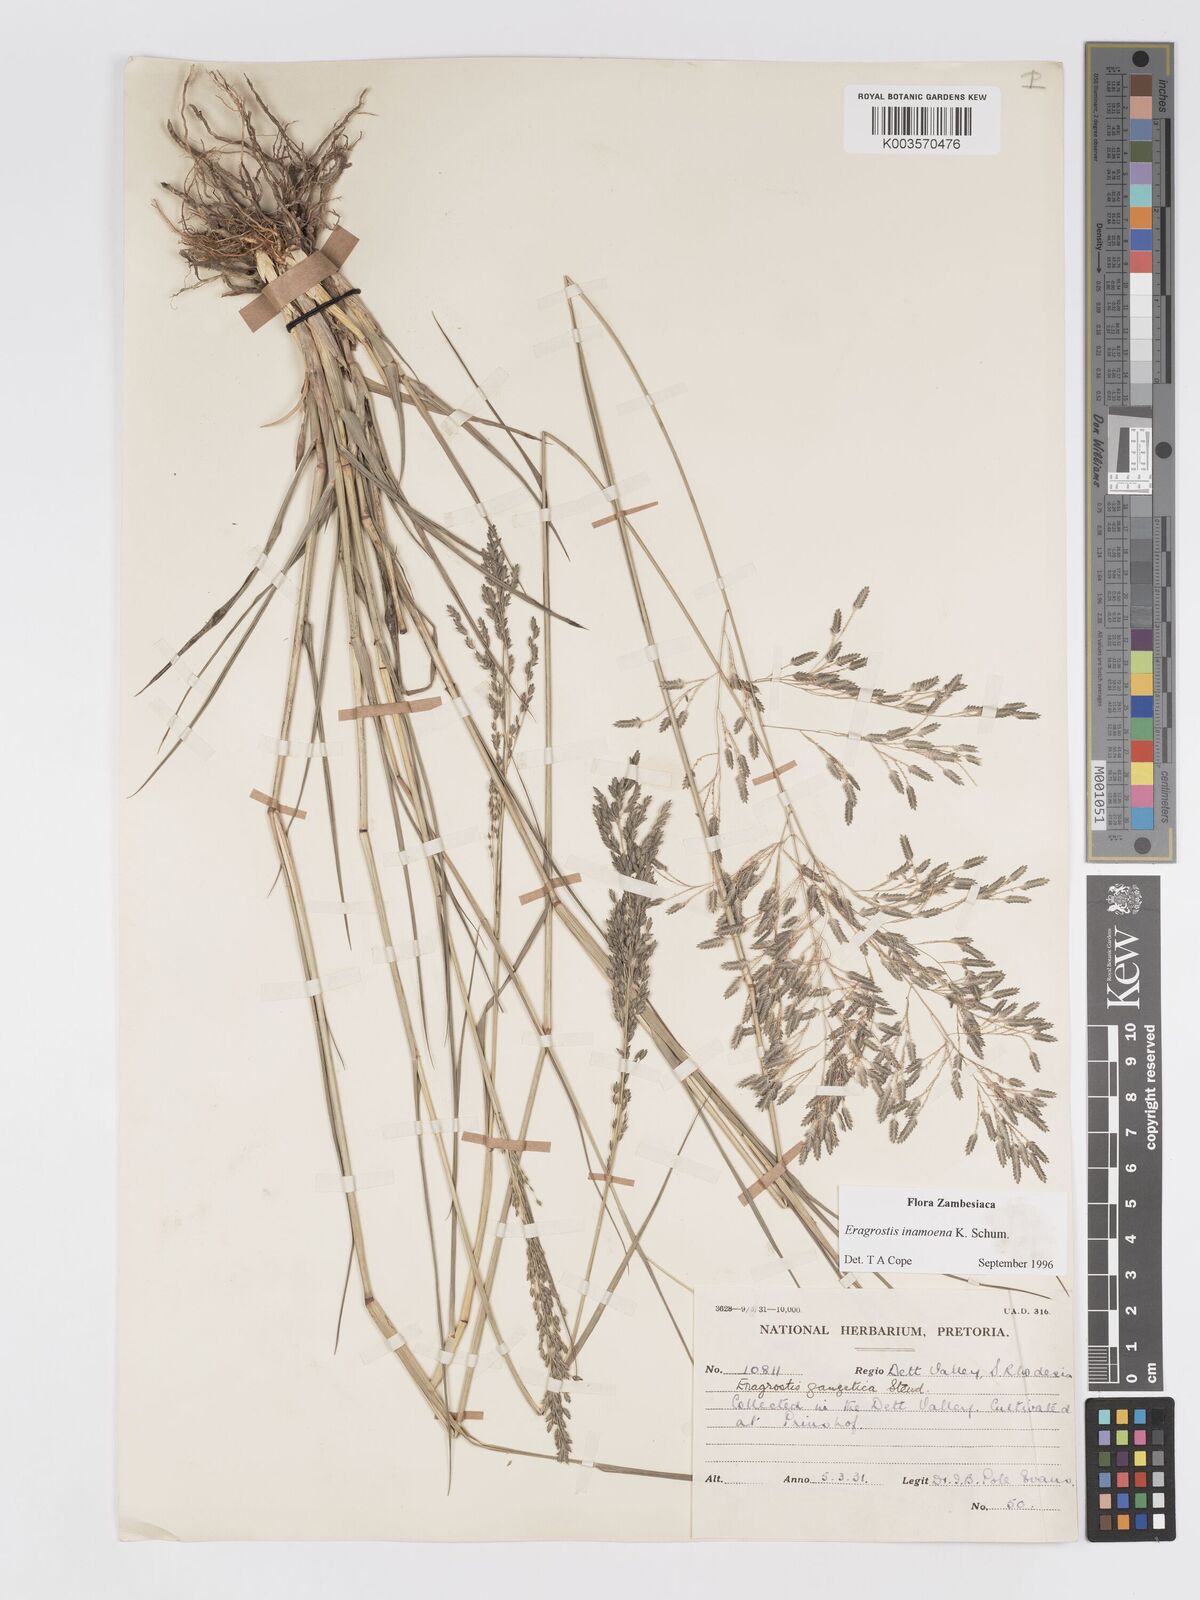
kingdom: Plantae
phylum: Tracheophyta
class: Liliopsida
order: Poales
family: Poaceae
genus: Eragrostis
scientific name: Eragrostis inamoena
